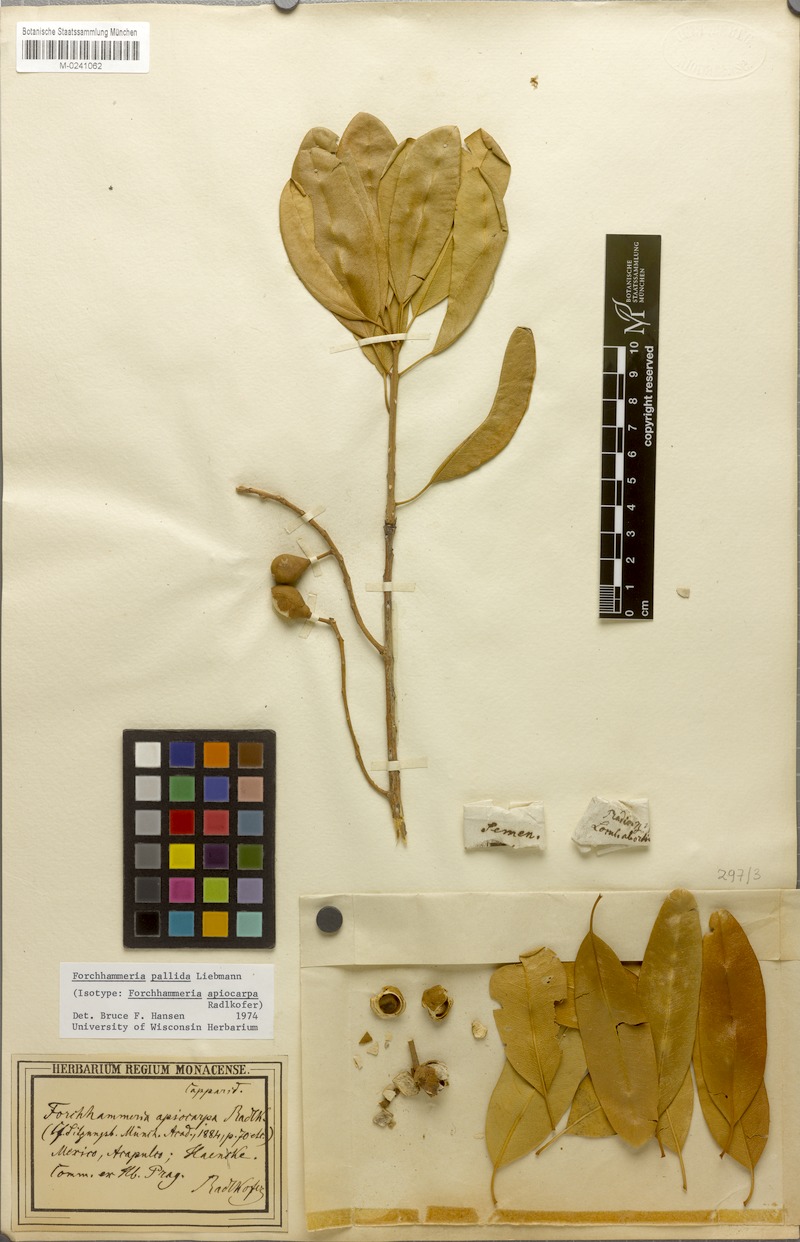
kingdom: Plantae
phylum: Tracheophyta
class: Magnoliopsida
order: Brassicales
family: Stixaceae
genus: Forchhammeria
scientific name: Forchhammeria pallida
